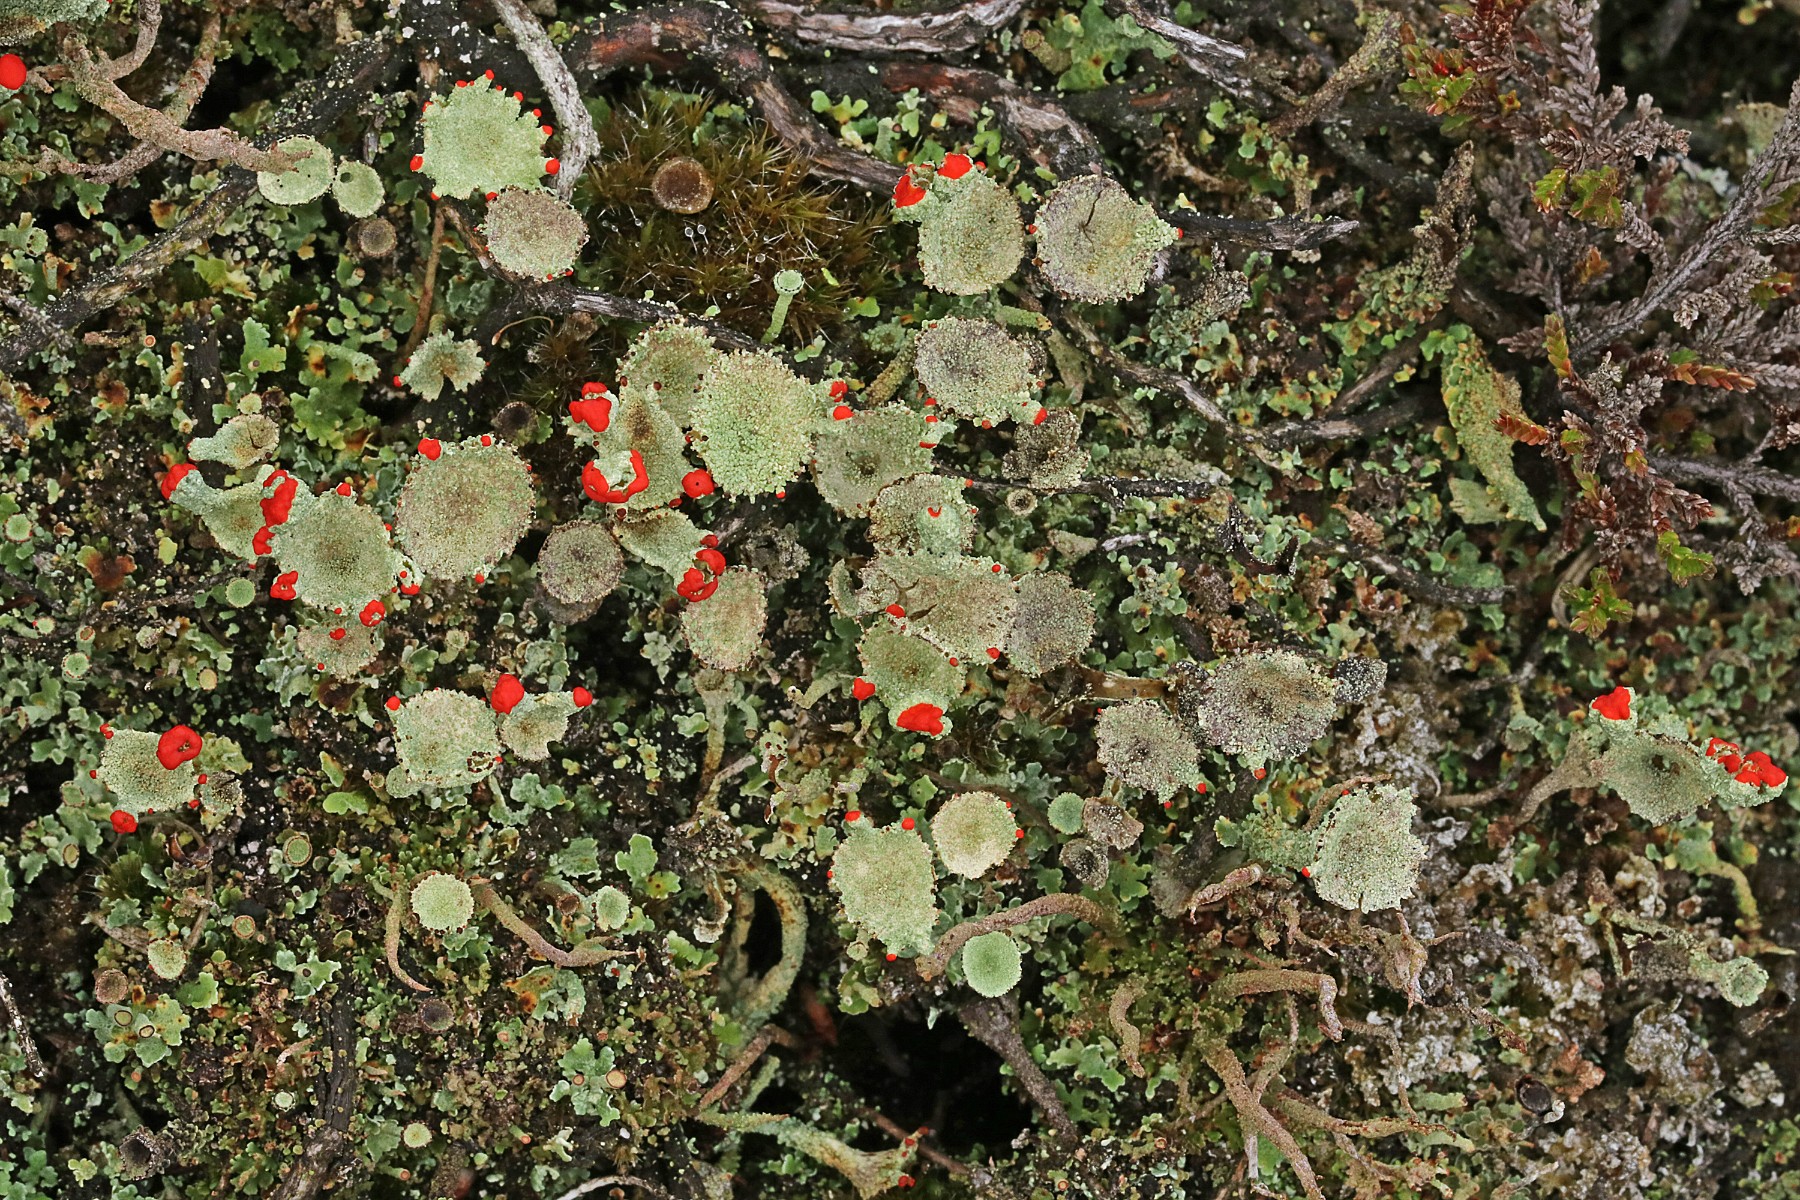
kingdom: Fungi
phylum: Ascomycota
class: Lecanoromycetes
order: Lecanorales
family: Cladoniaceae
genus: Cladonia
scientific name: Cladonia diversa
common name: rød bægerlav
